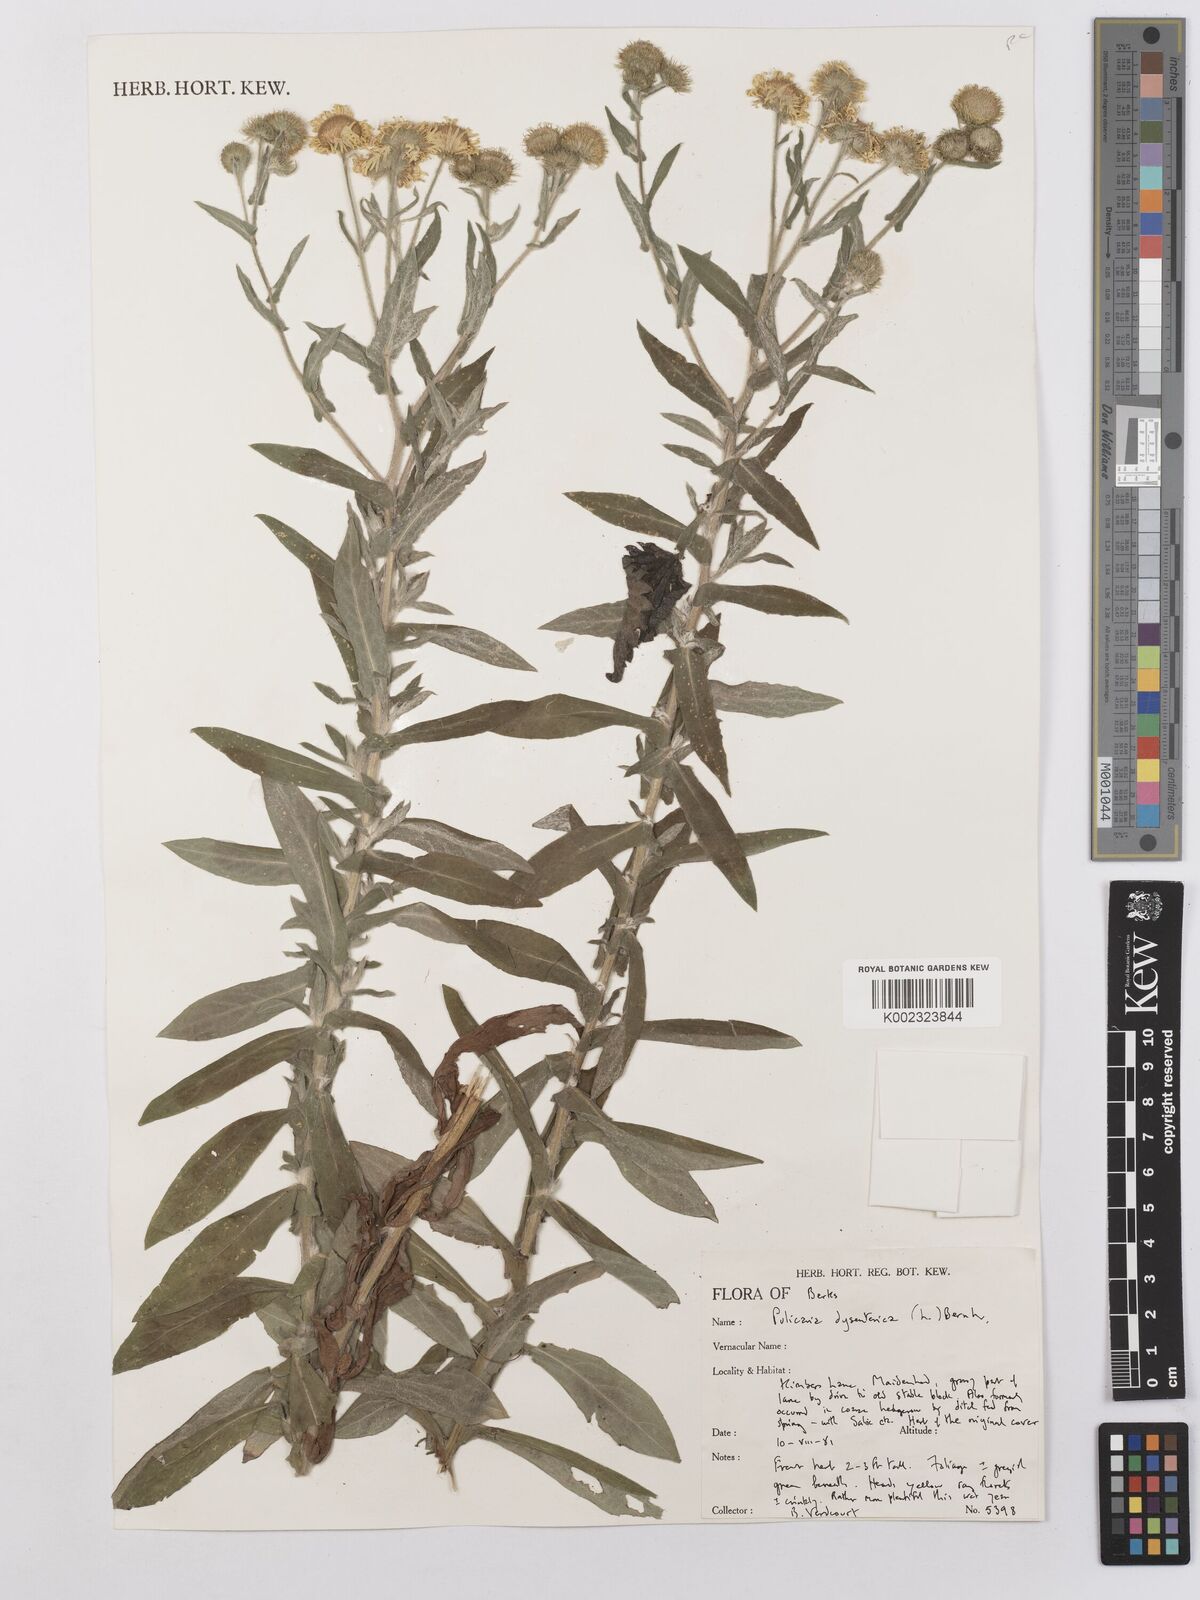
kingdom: Plantae
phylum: Tracheophyta
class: Magnoliopsida
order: Asterales
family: Asteraceae
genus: Pulicaria
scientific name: Pulicaria dysenterica
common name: Common fleabane
